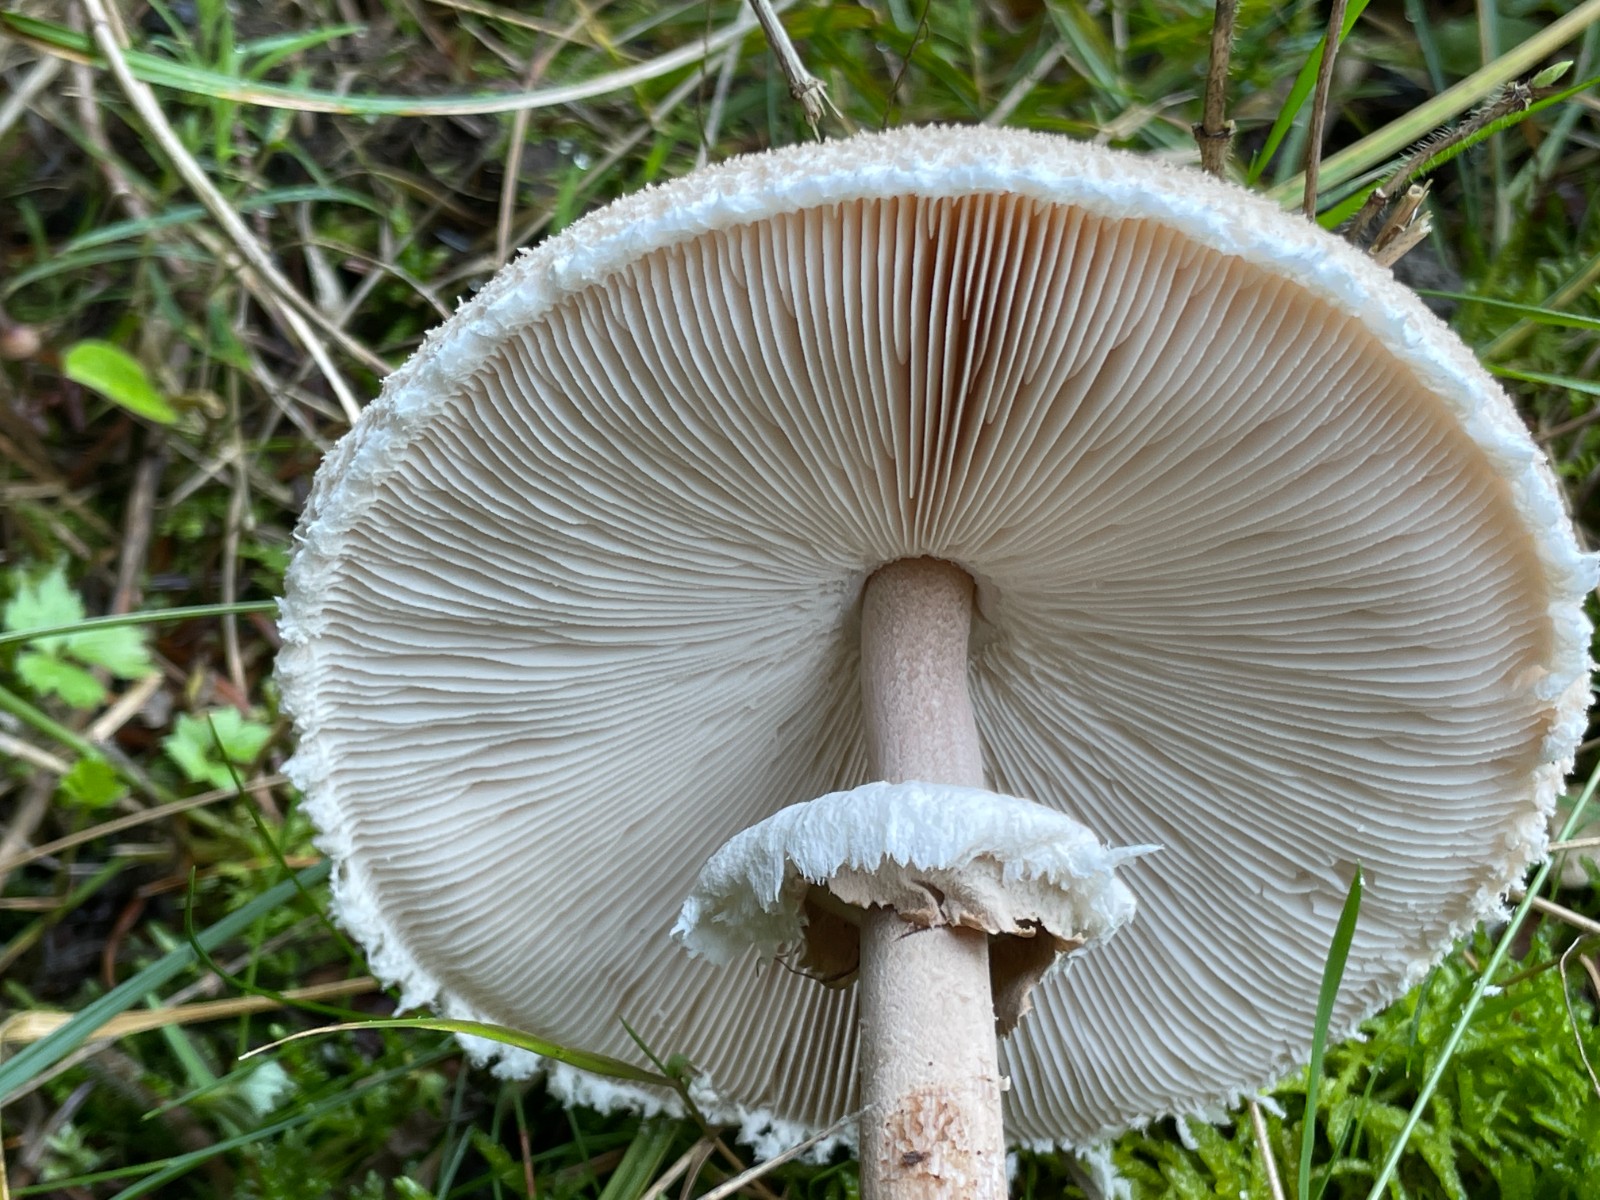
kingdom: Fungi
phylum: Basidiomycota
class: Agaricomycetes
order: Agaricales
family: Agaricaceae
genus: Macrolepiota
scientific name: Macrolepiota fuliginosa
